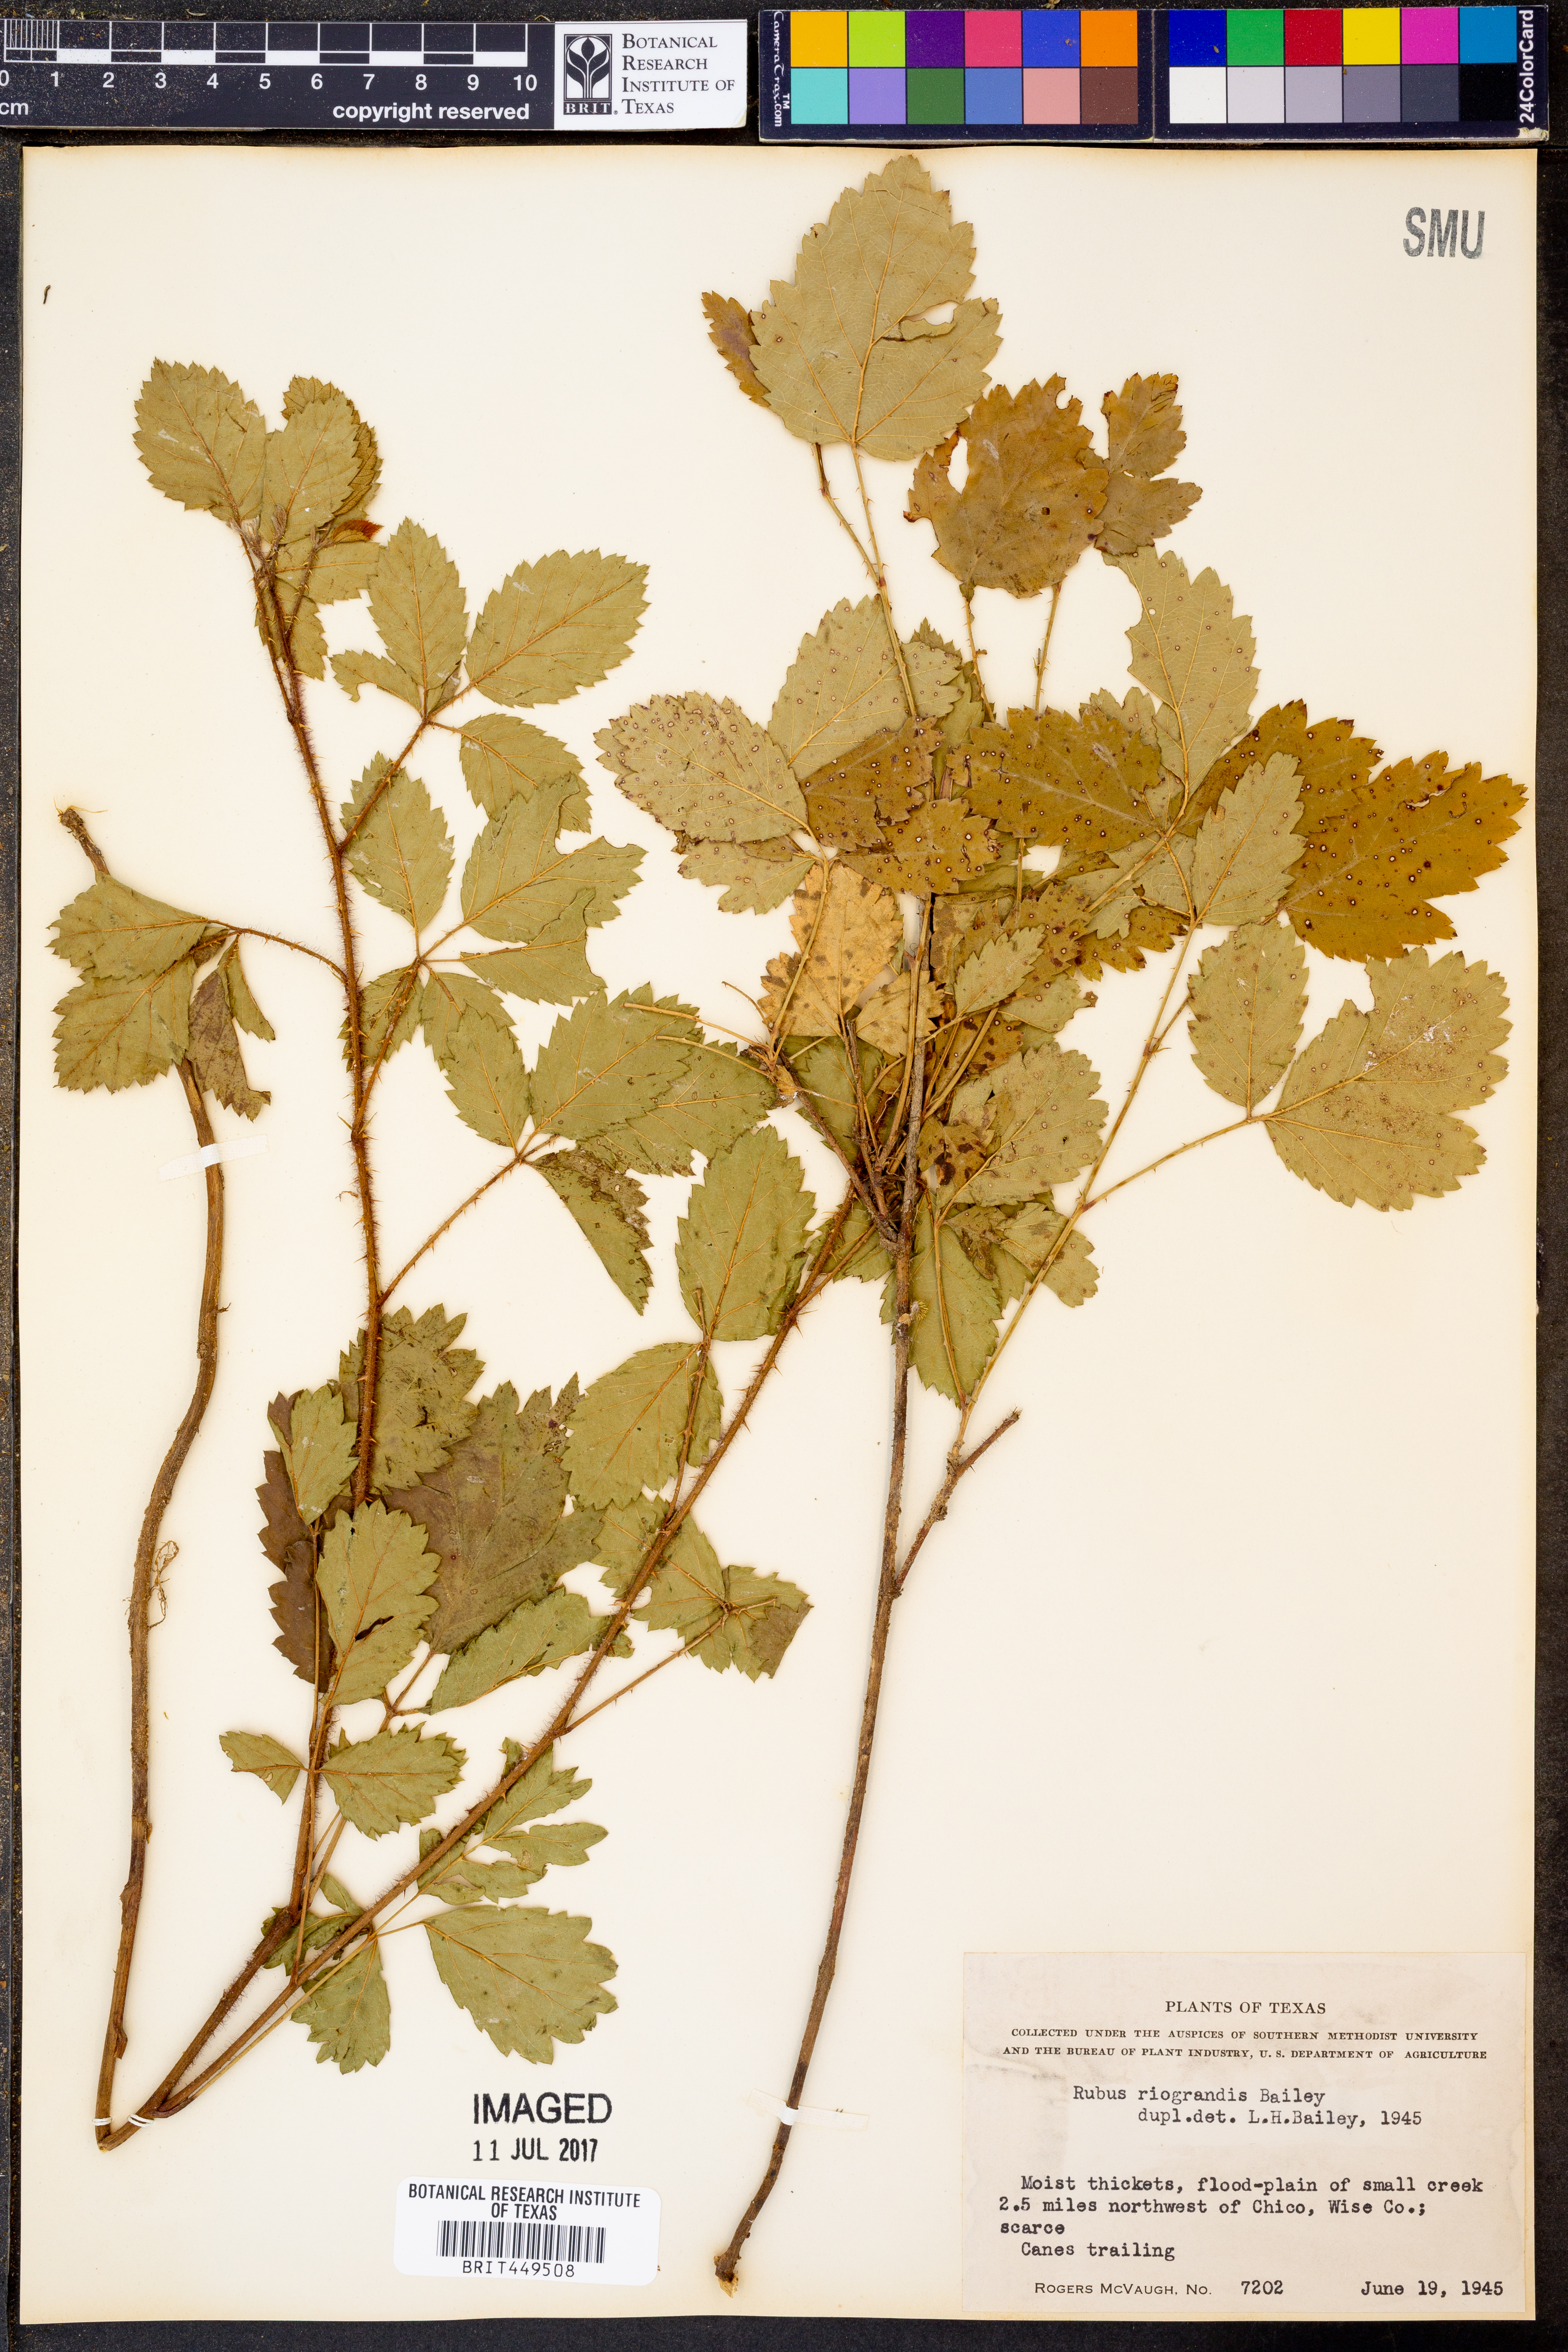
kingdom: Plantae
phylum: Tracheophyta
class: Magnoliopsida
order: Rosales
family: Rosaceae
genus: Rubus
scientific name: Rubus riograndis
